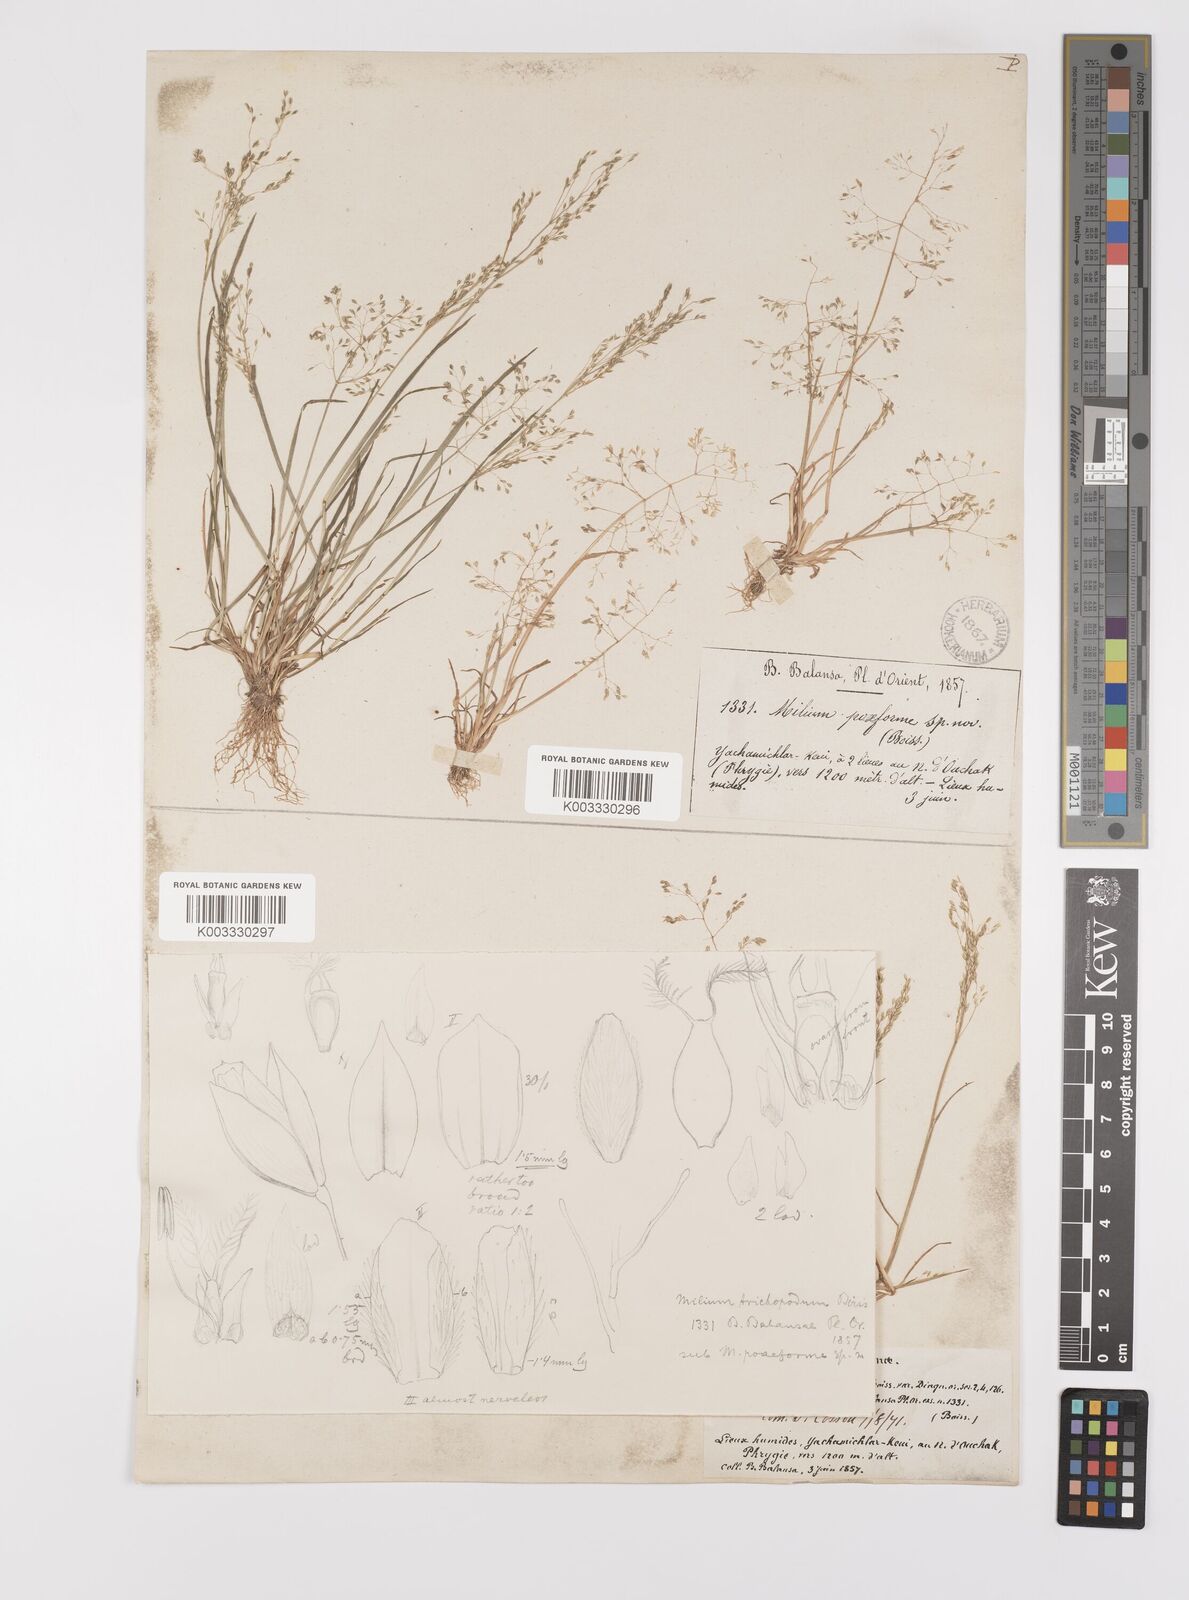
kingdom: Plantae
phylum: Tracheophyta
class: Liliopsida
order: Poales
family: Poaceae
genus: Colpodium
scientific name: Colpodium trichopodum
